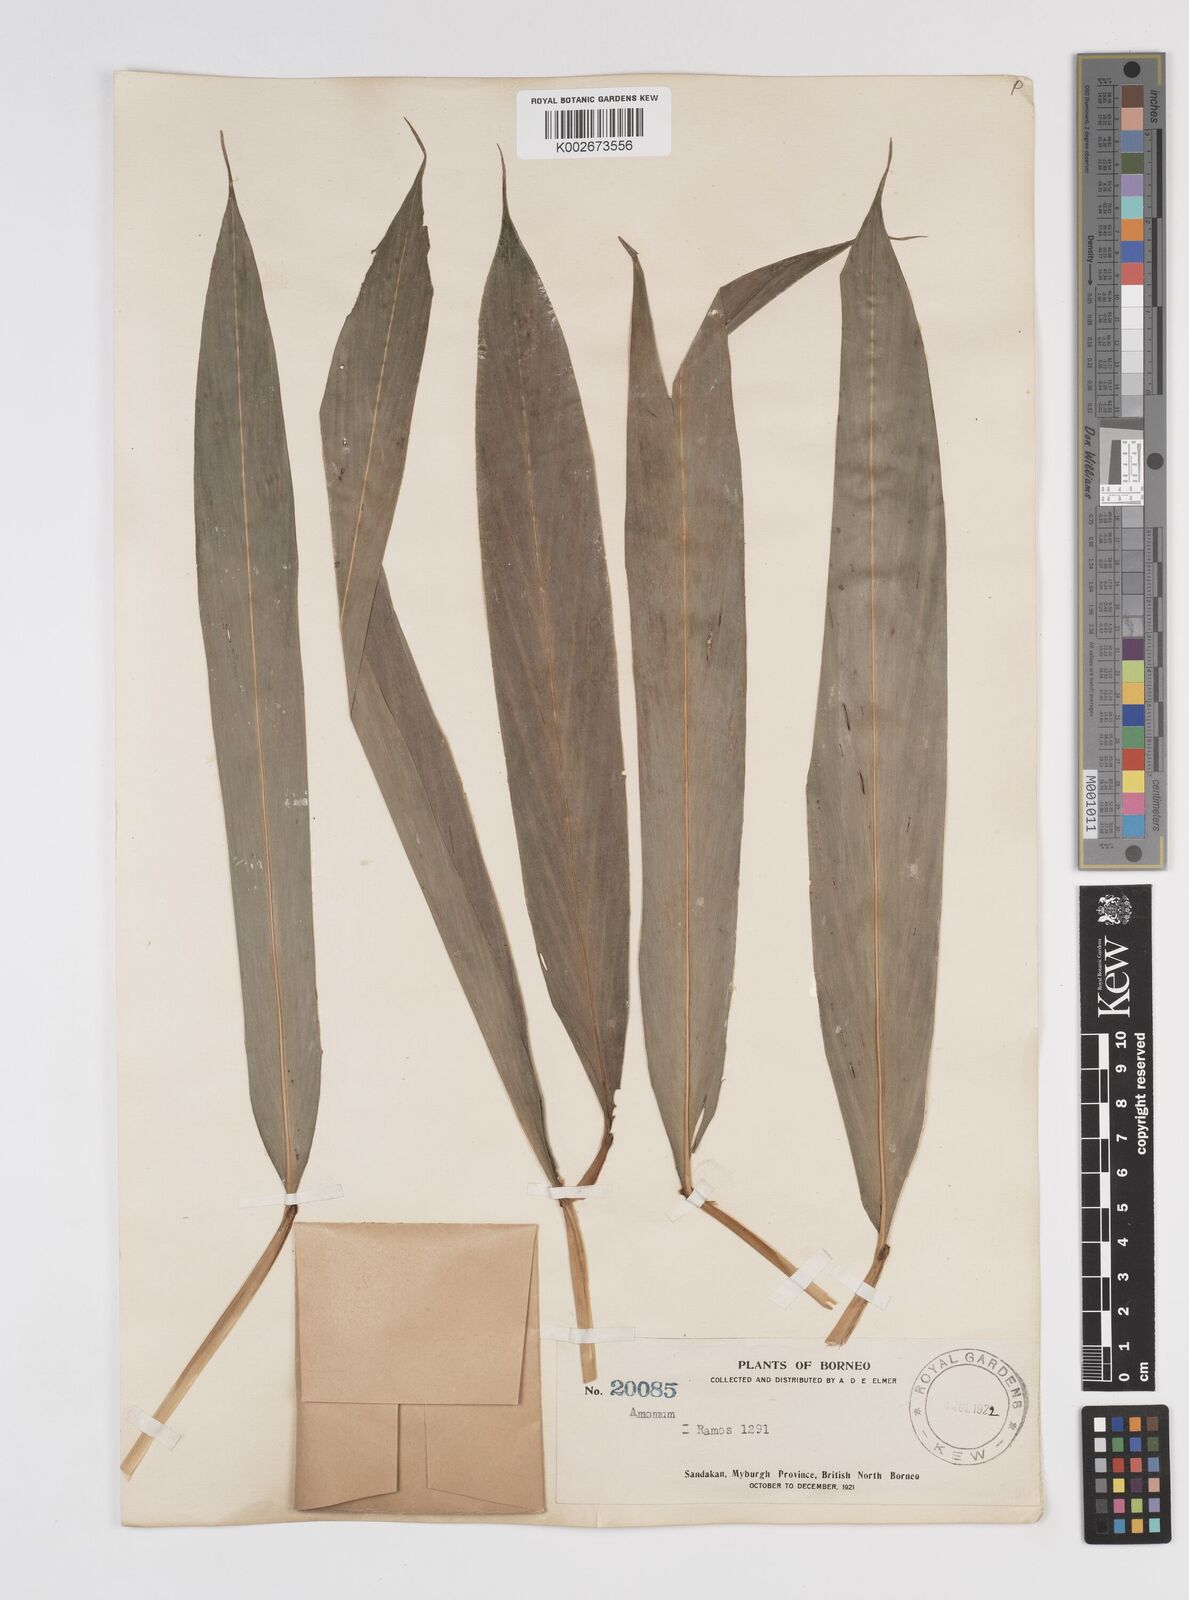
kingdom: Plantae
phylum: Tracheophyta
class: Liliopsida
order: Zingiberales
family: Zingiberaceae
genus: Amomum
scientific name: Amomum
